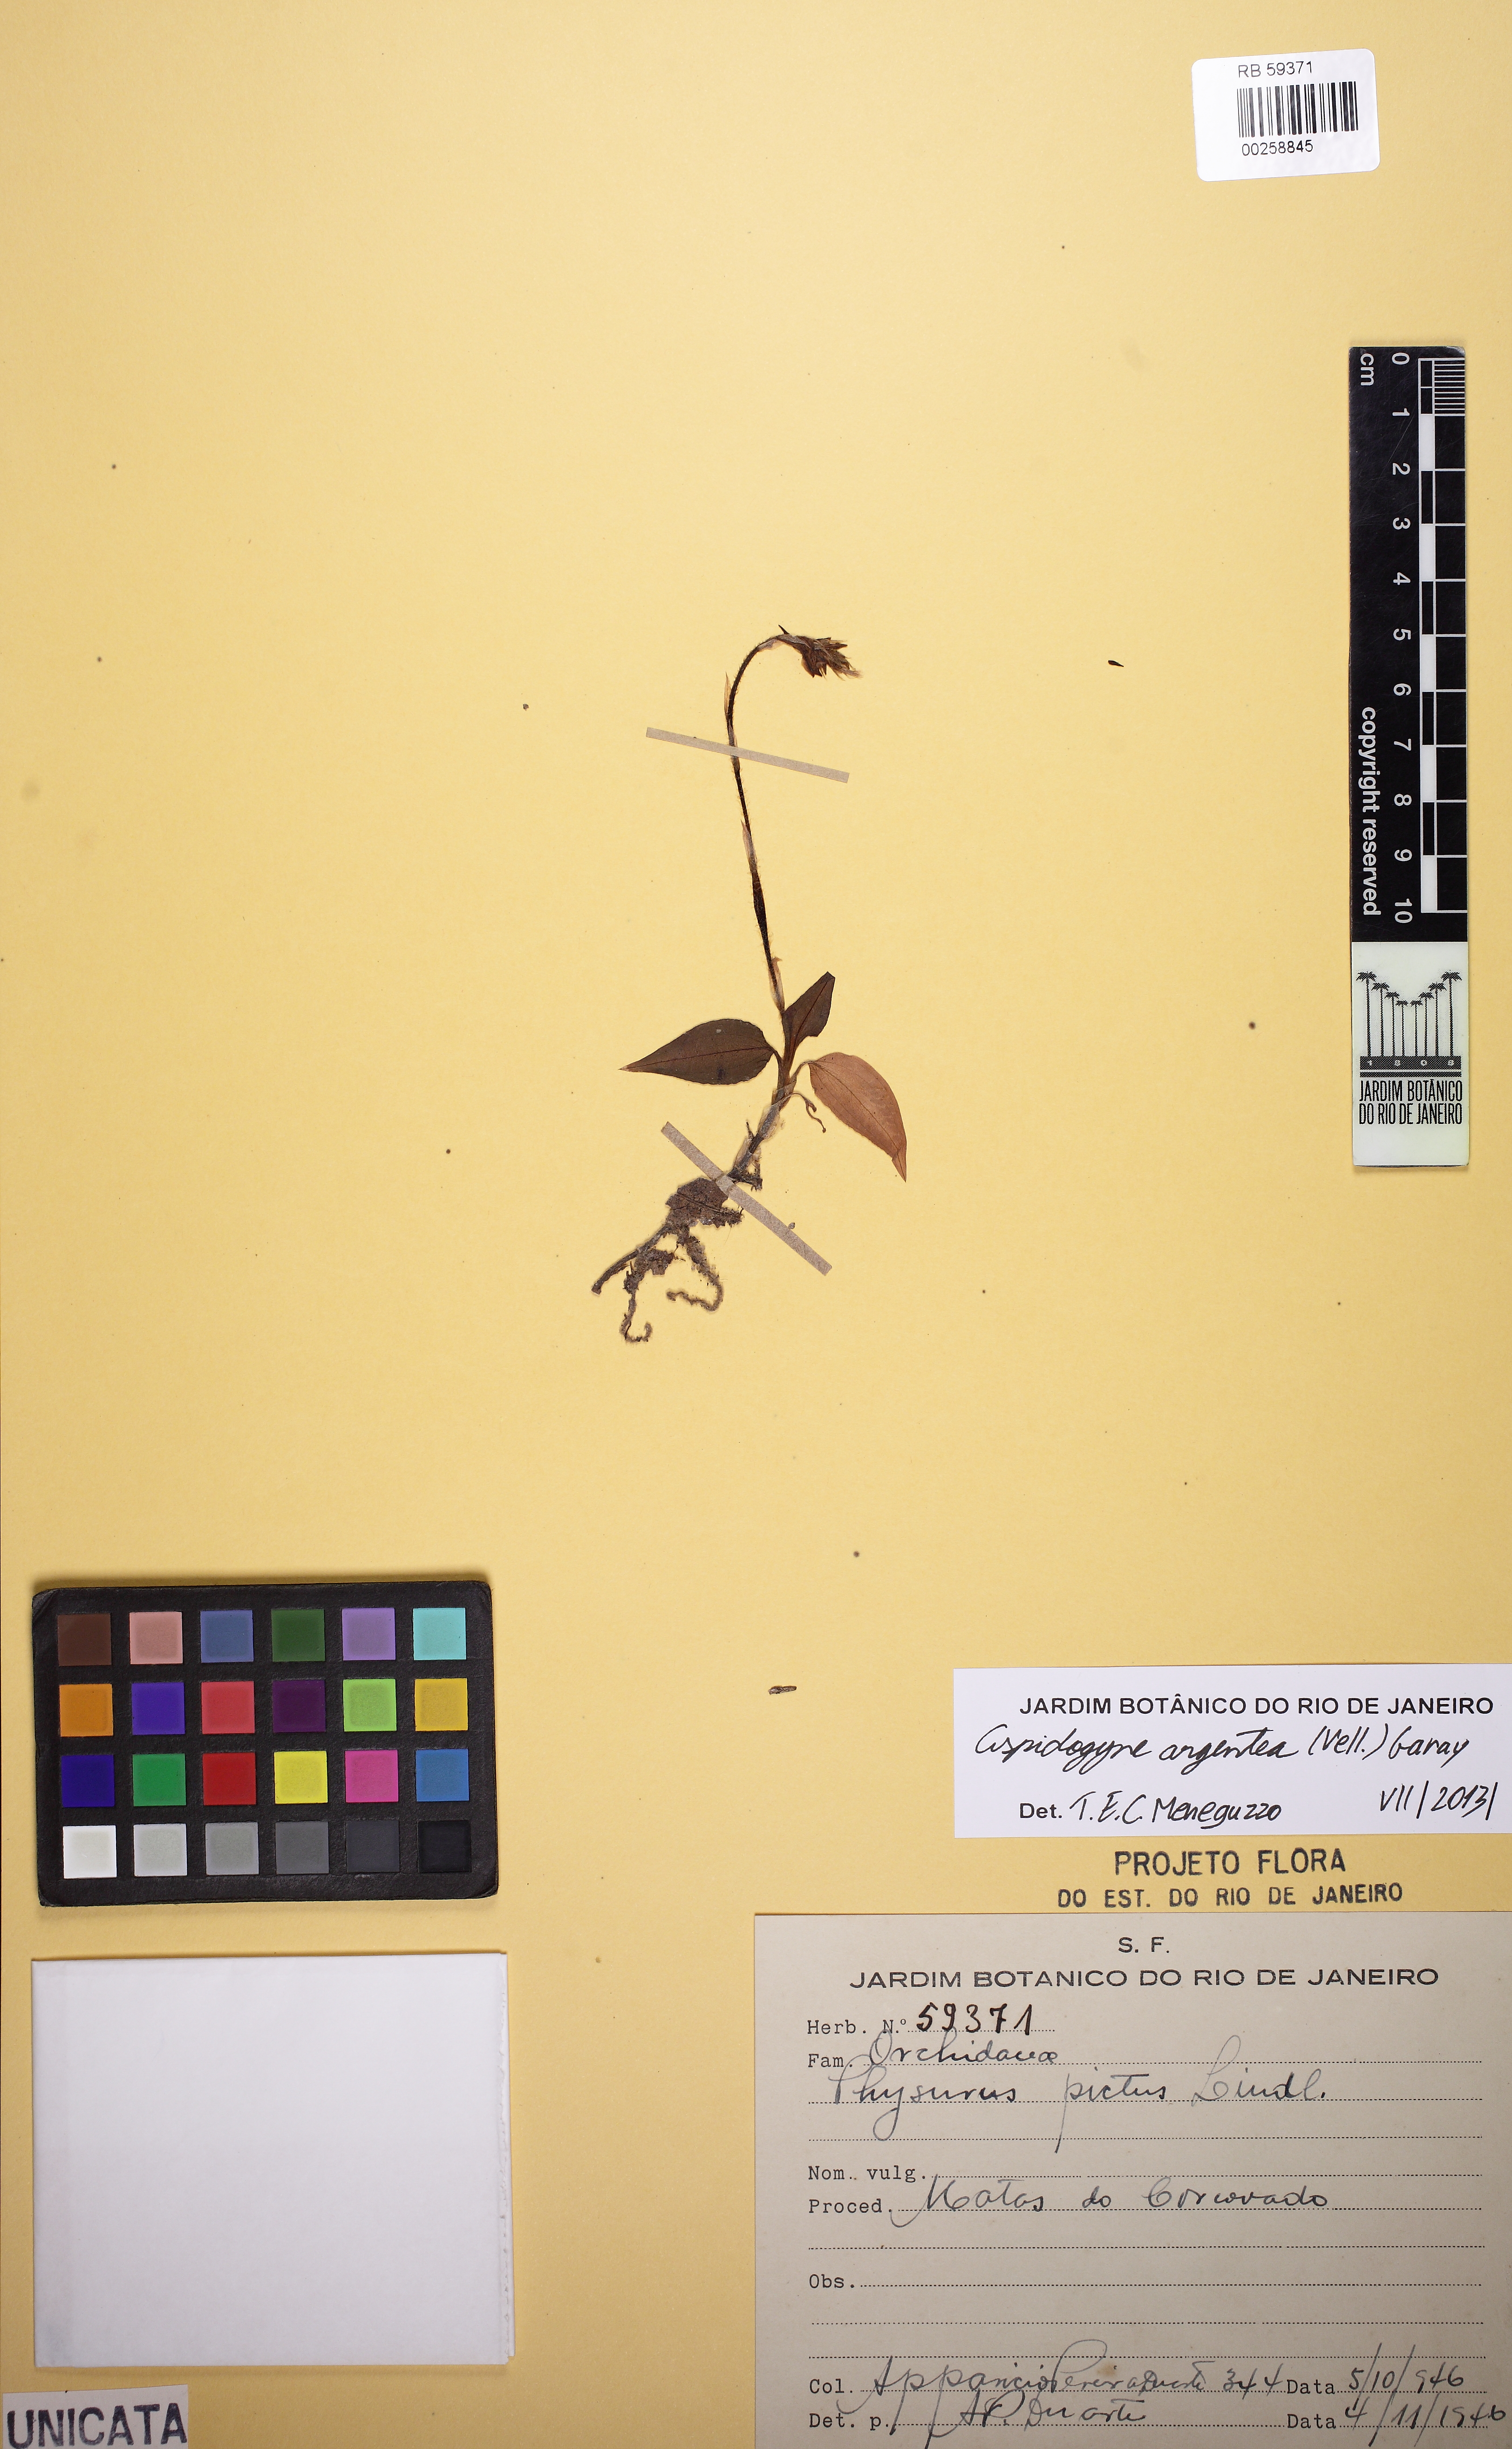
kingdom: Plantae
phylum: Tracheophyta
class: Liliopsida
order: Asparagales
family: Orchidaceae
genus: Aspidogyne
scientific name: Aspidogyne argentea
